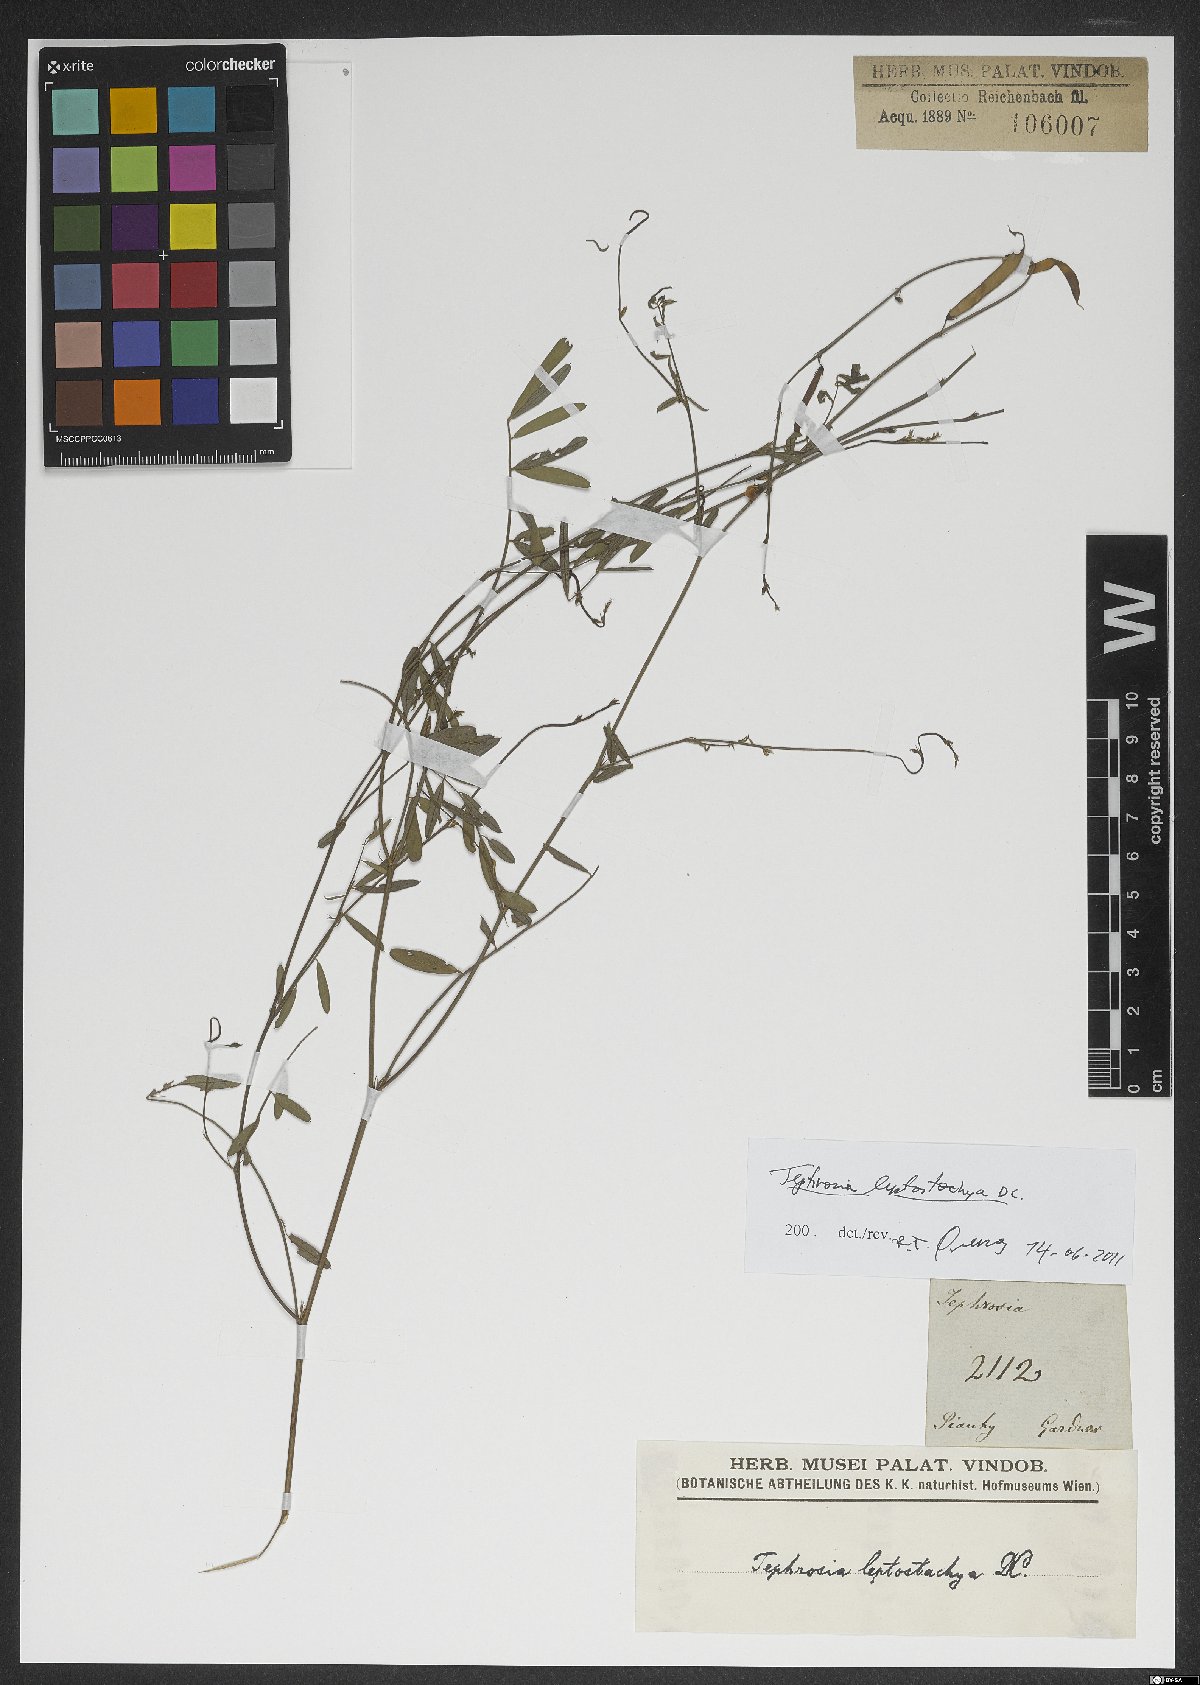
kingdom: Plantae
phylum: Tracheophyta
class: Magnoliopsida
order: Fabales
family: Fabaceae
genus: Tephrosia
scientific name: Tephrosia purpurea
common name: Fishpoison
